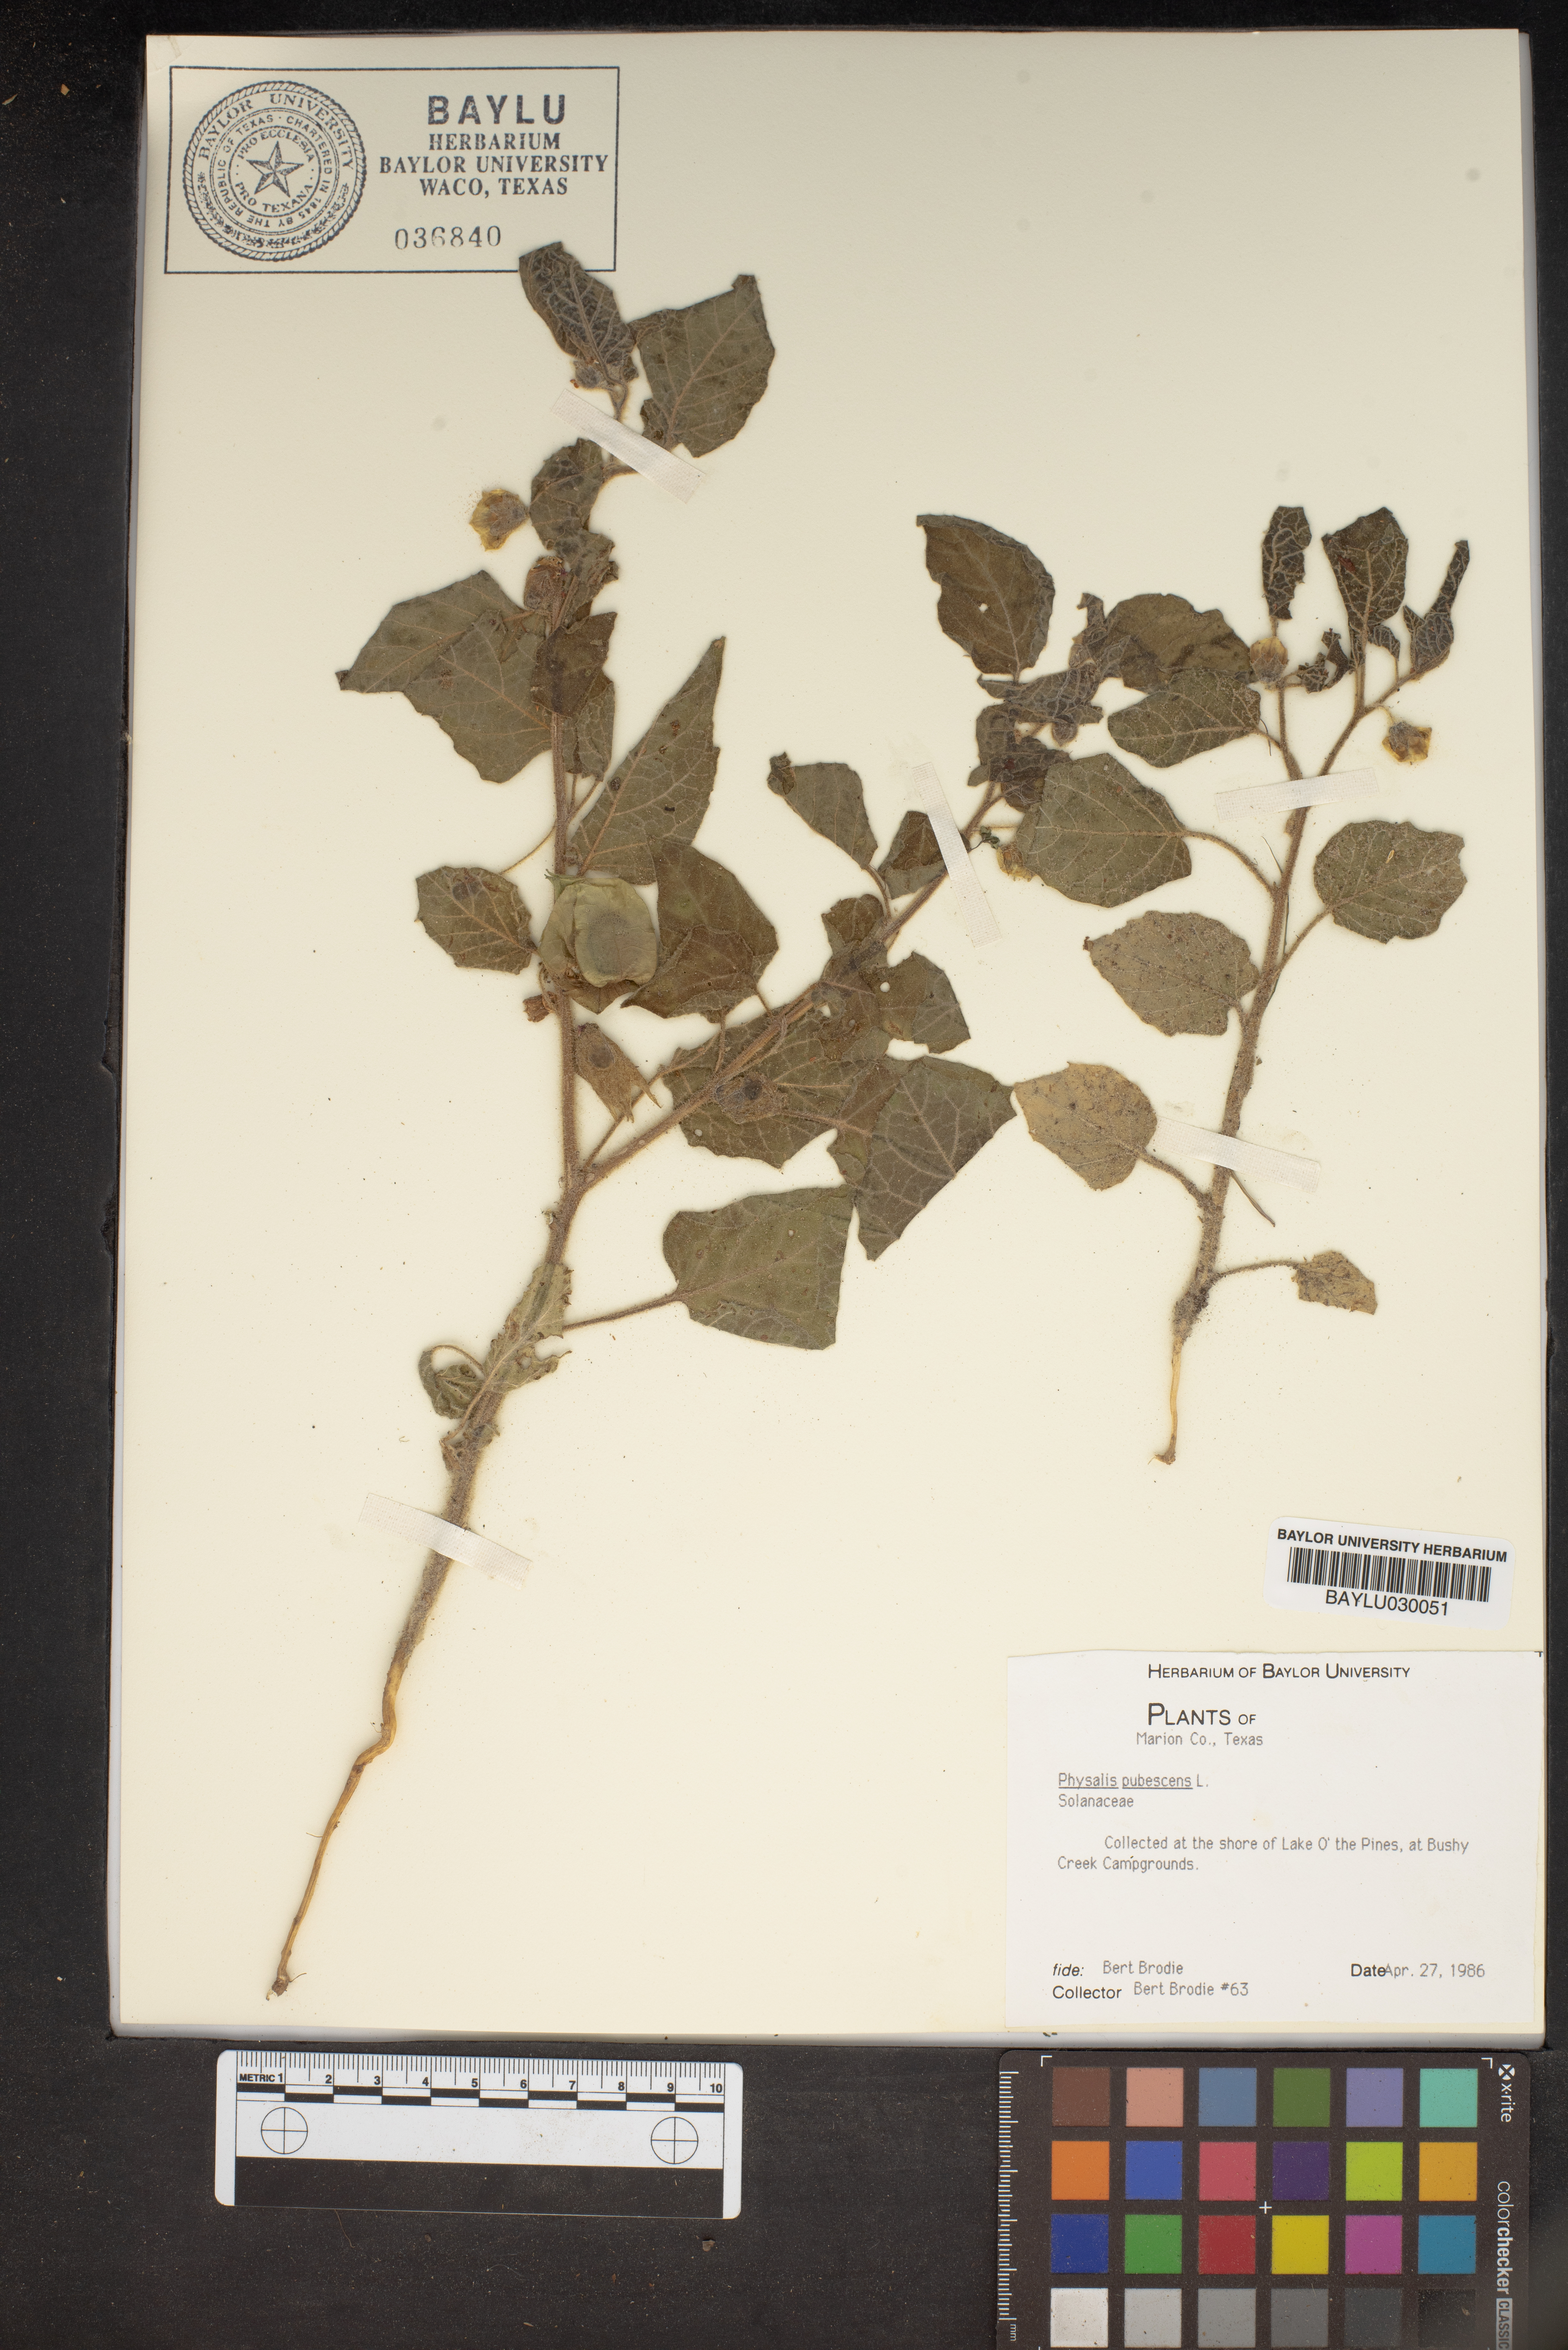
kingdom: Plantae
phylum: Tracheophyta
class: Magnoliopsida
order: Solanales
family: Solanaceae
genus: Physalis
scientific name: Physalis pubescens
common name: Downy ground-cherry
